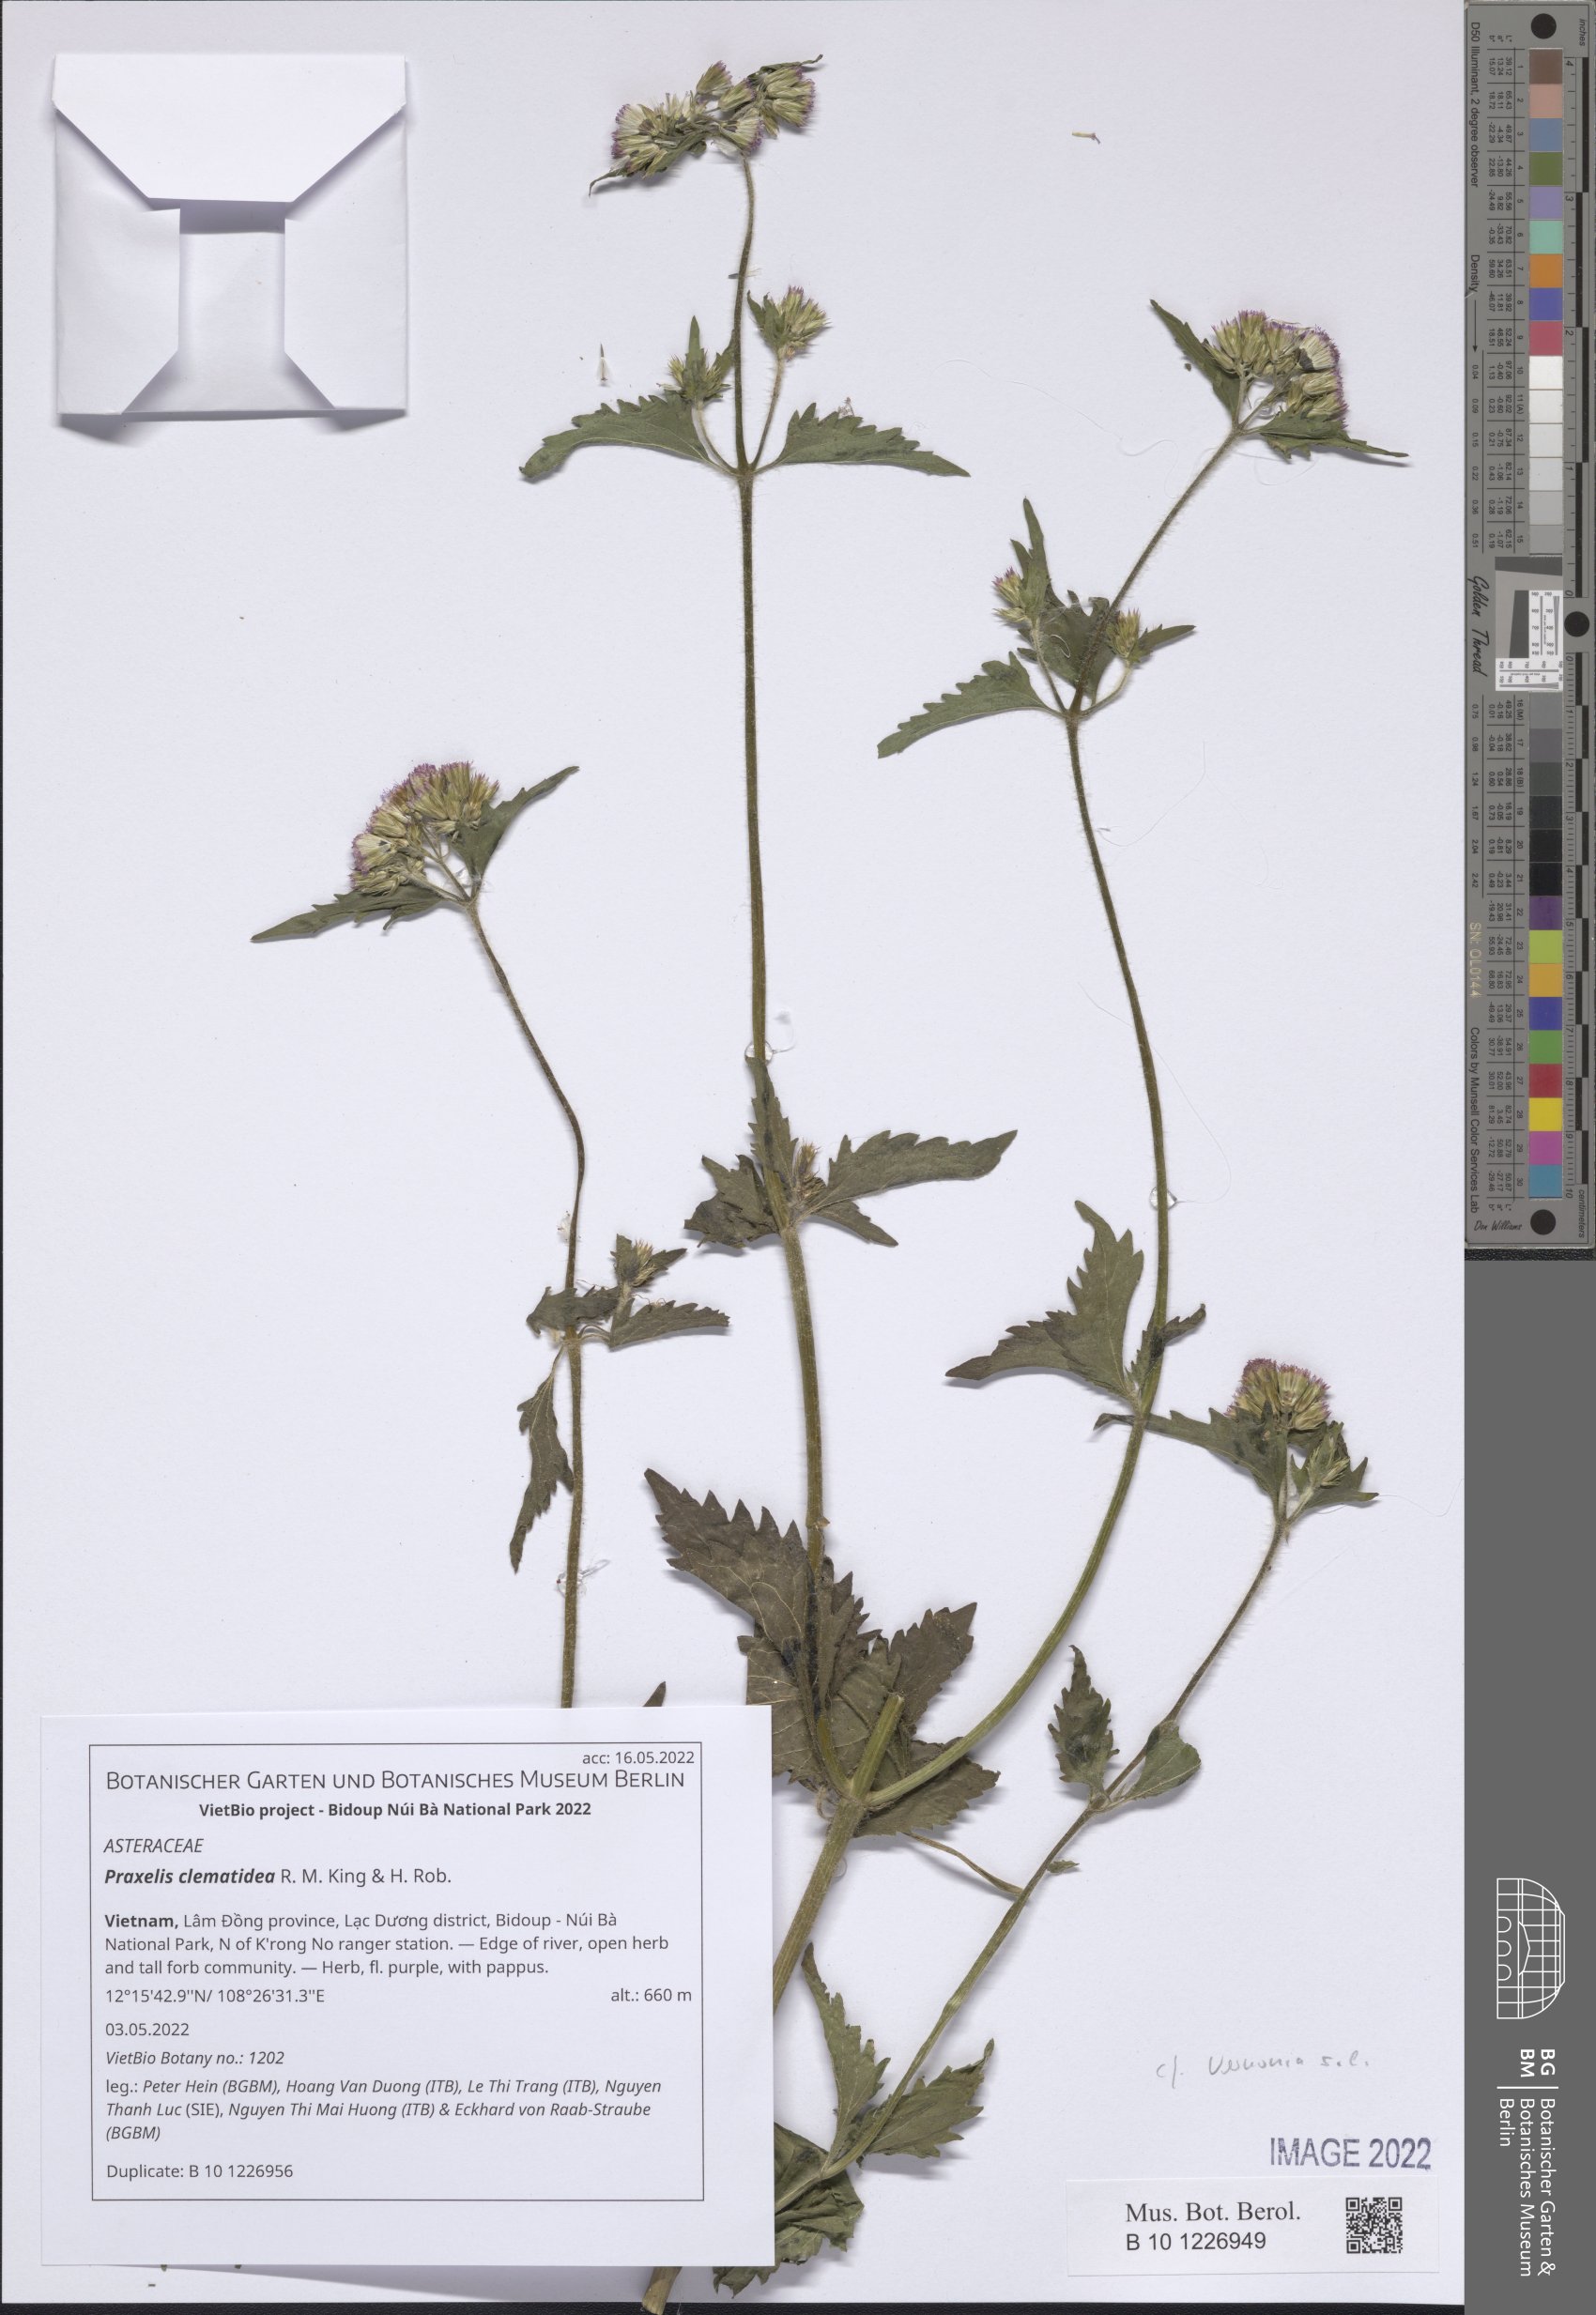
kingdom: Plantae
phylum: Tracheophyta
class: Magnoliopsida
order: Asterales
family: Asteraceae
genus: Praxelis
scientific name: Praxelis clematidea
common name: Praxelis
